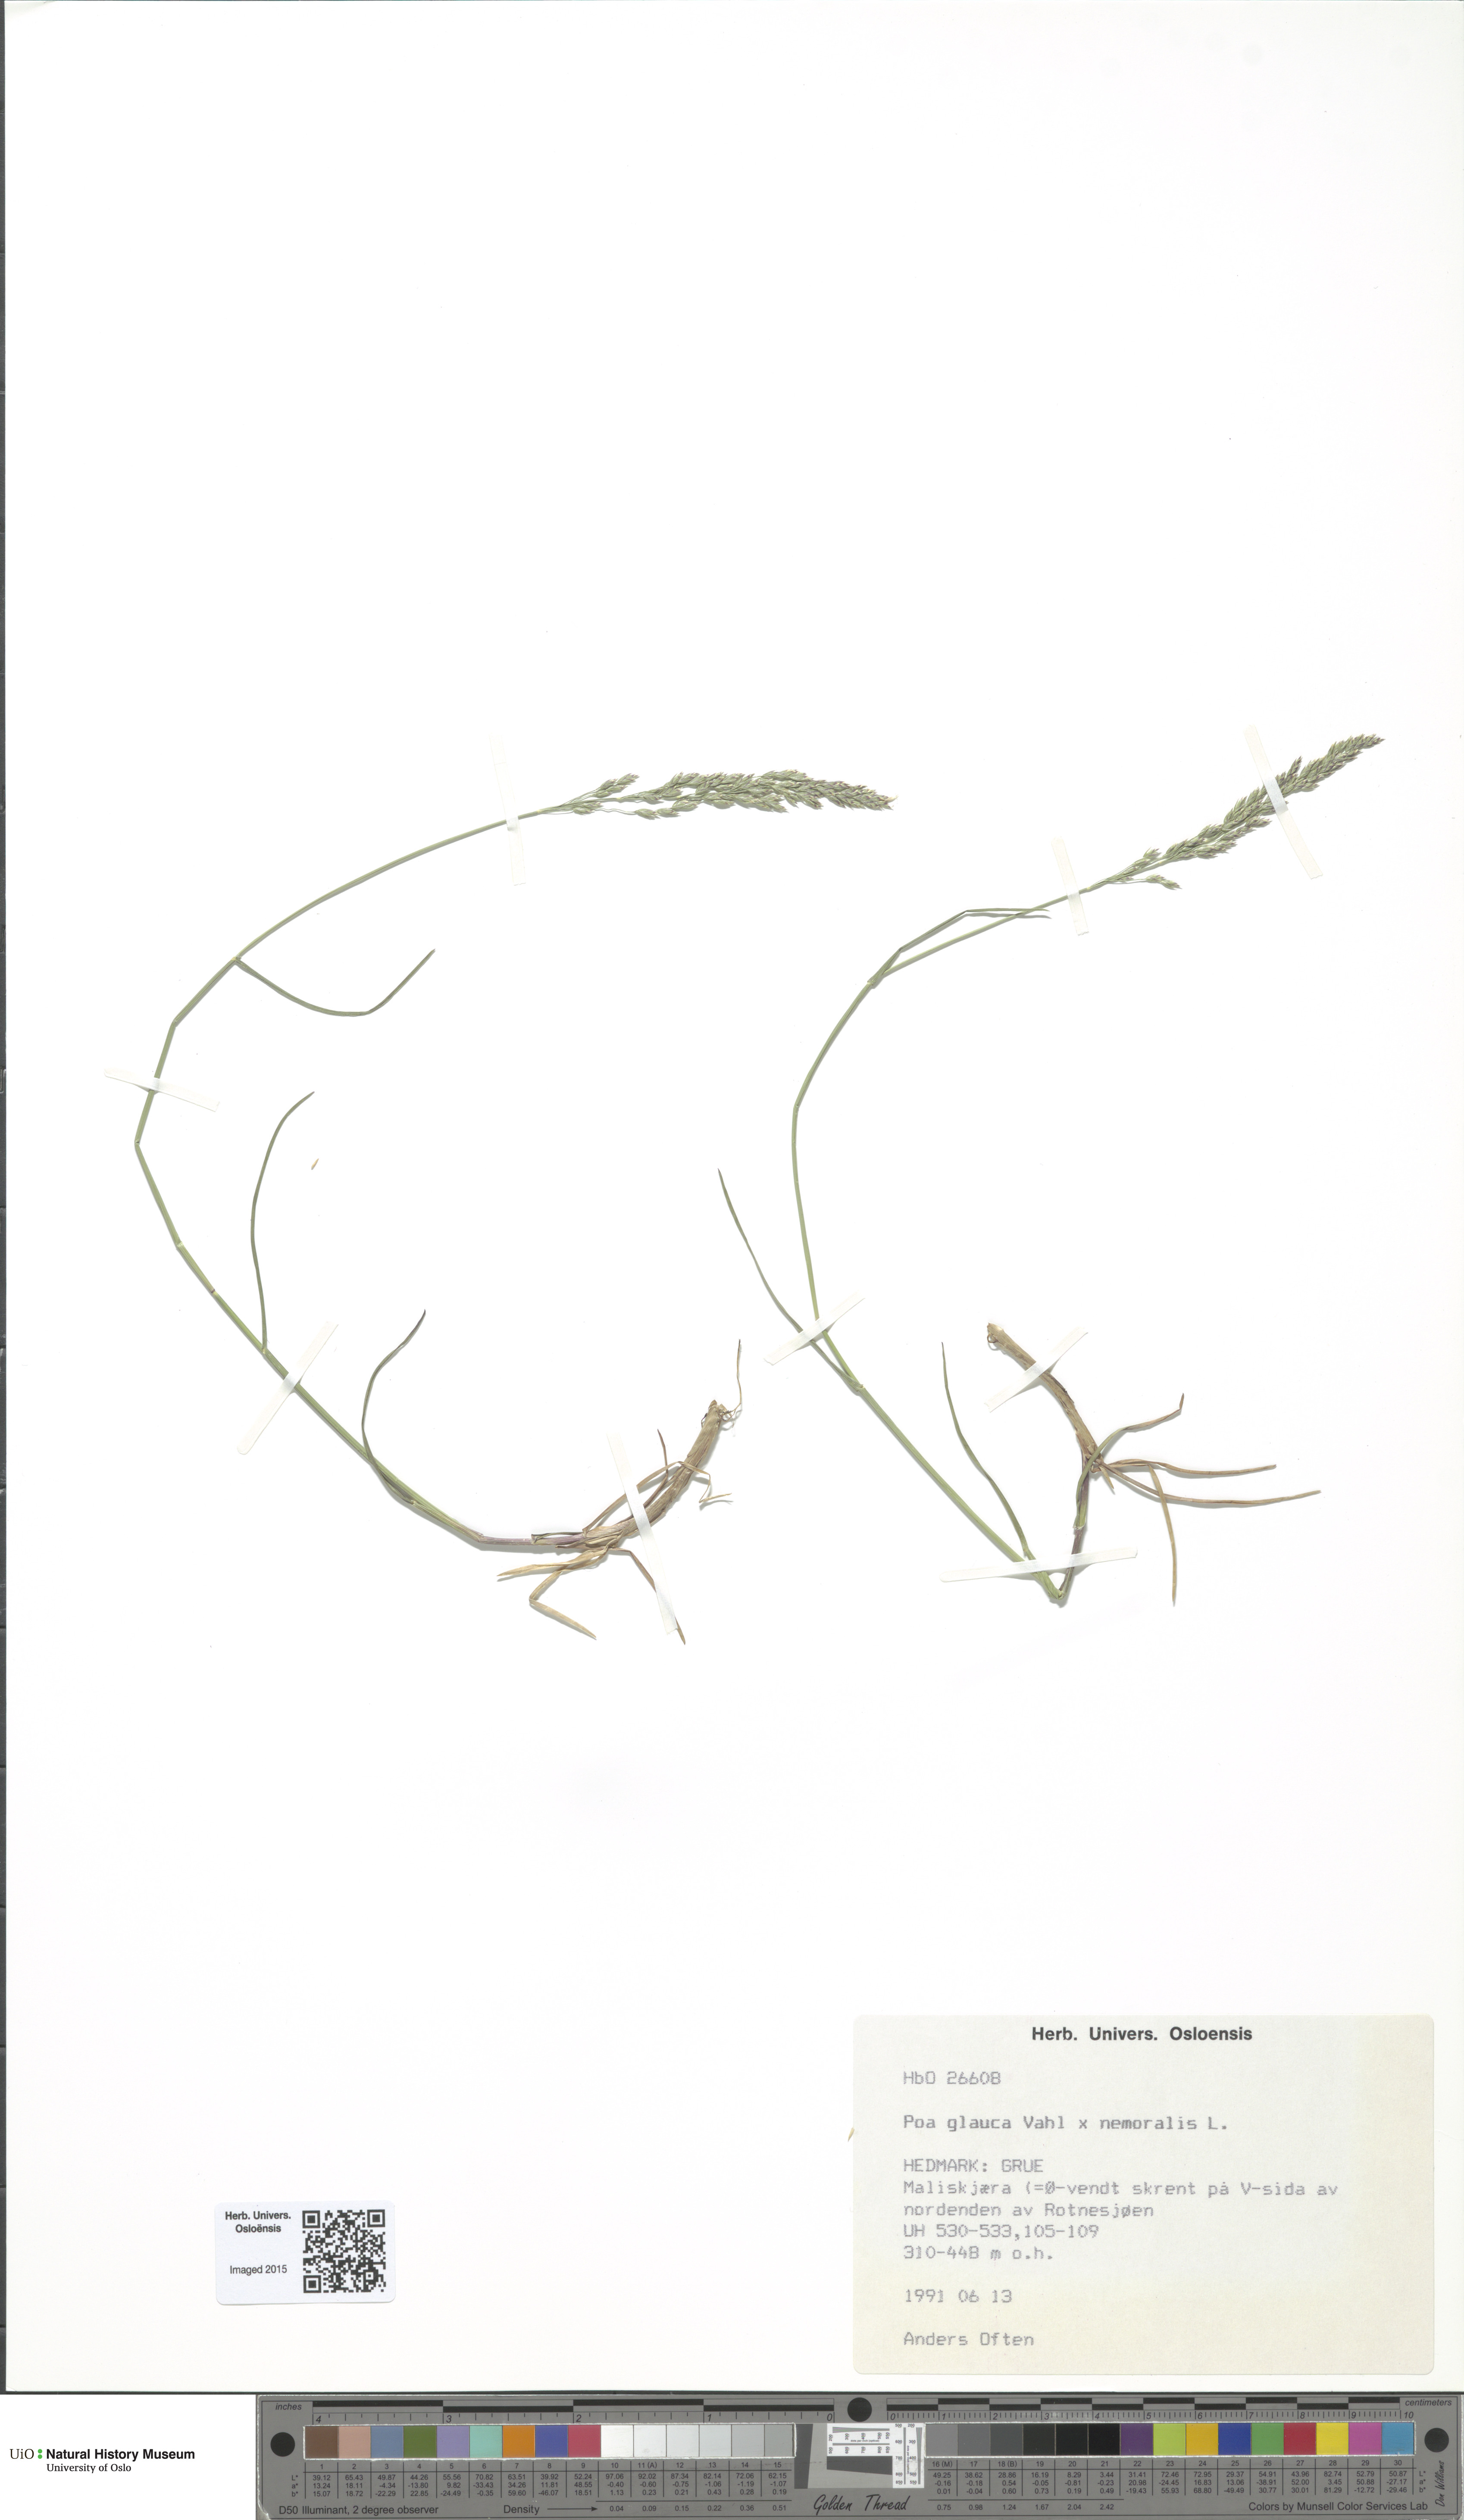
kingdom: Plantae
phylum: Tracheophyta
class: Liliopsida
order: Poales
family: Poaceae
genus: Poa
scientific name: Poa
